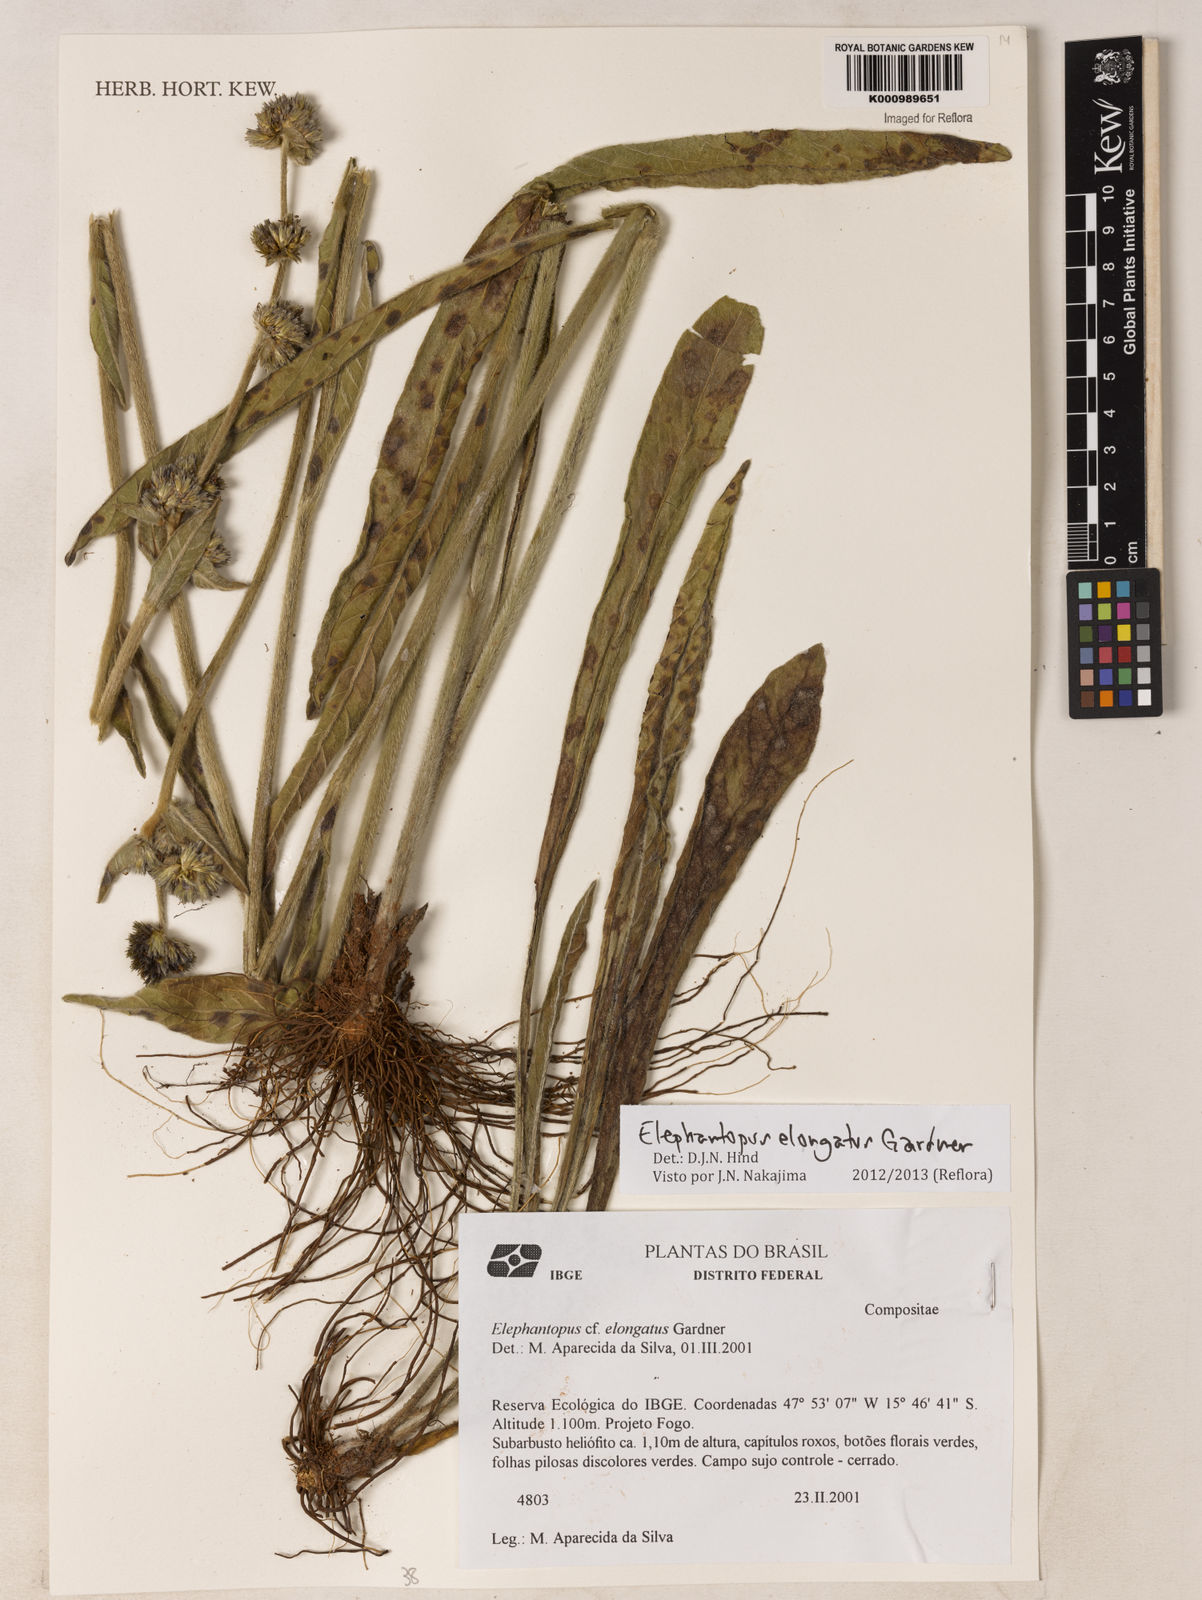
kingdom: Plantae
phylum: Tracheophyta
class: Magnoliopsida
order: Asterales
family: Asteraceae
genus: Elephantopus
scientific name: Elephantopus elongatus
